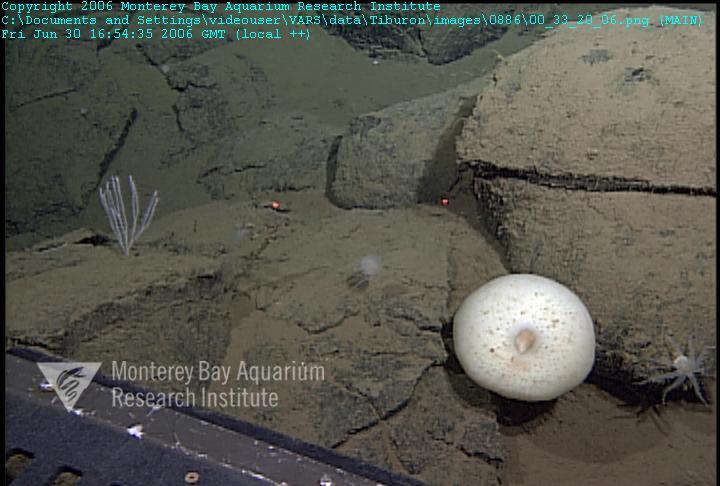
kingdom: Animalia
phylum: Porifera
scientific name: Porifera
